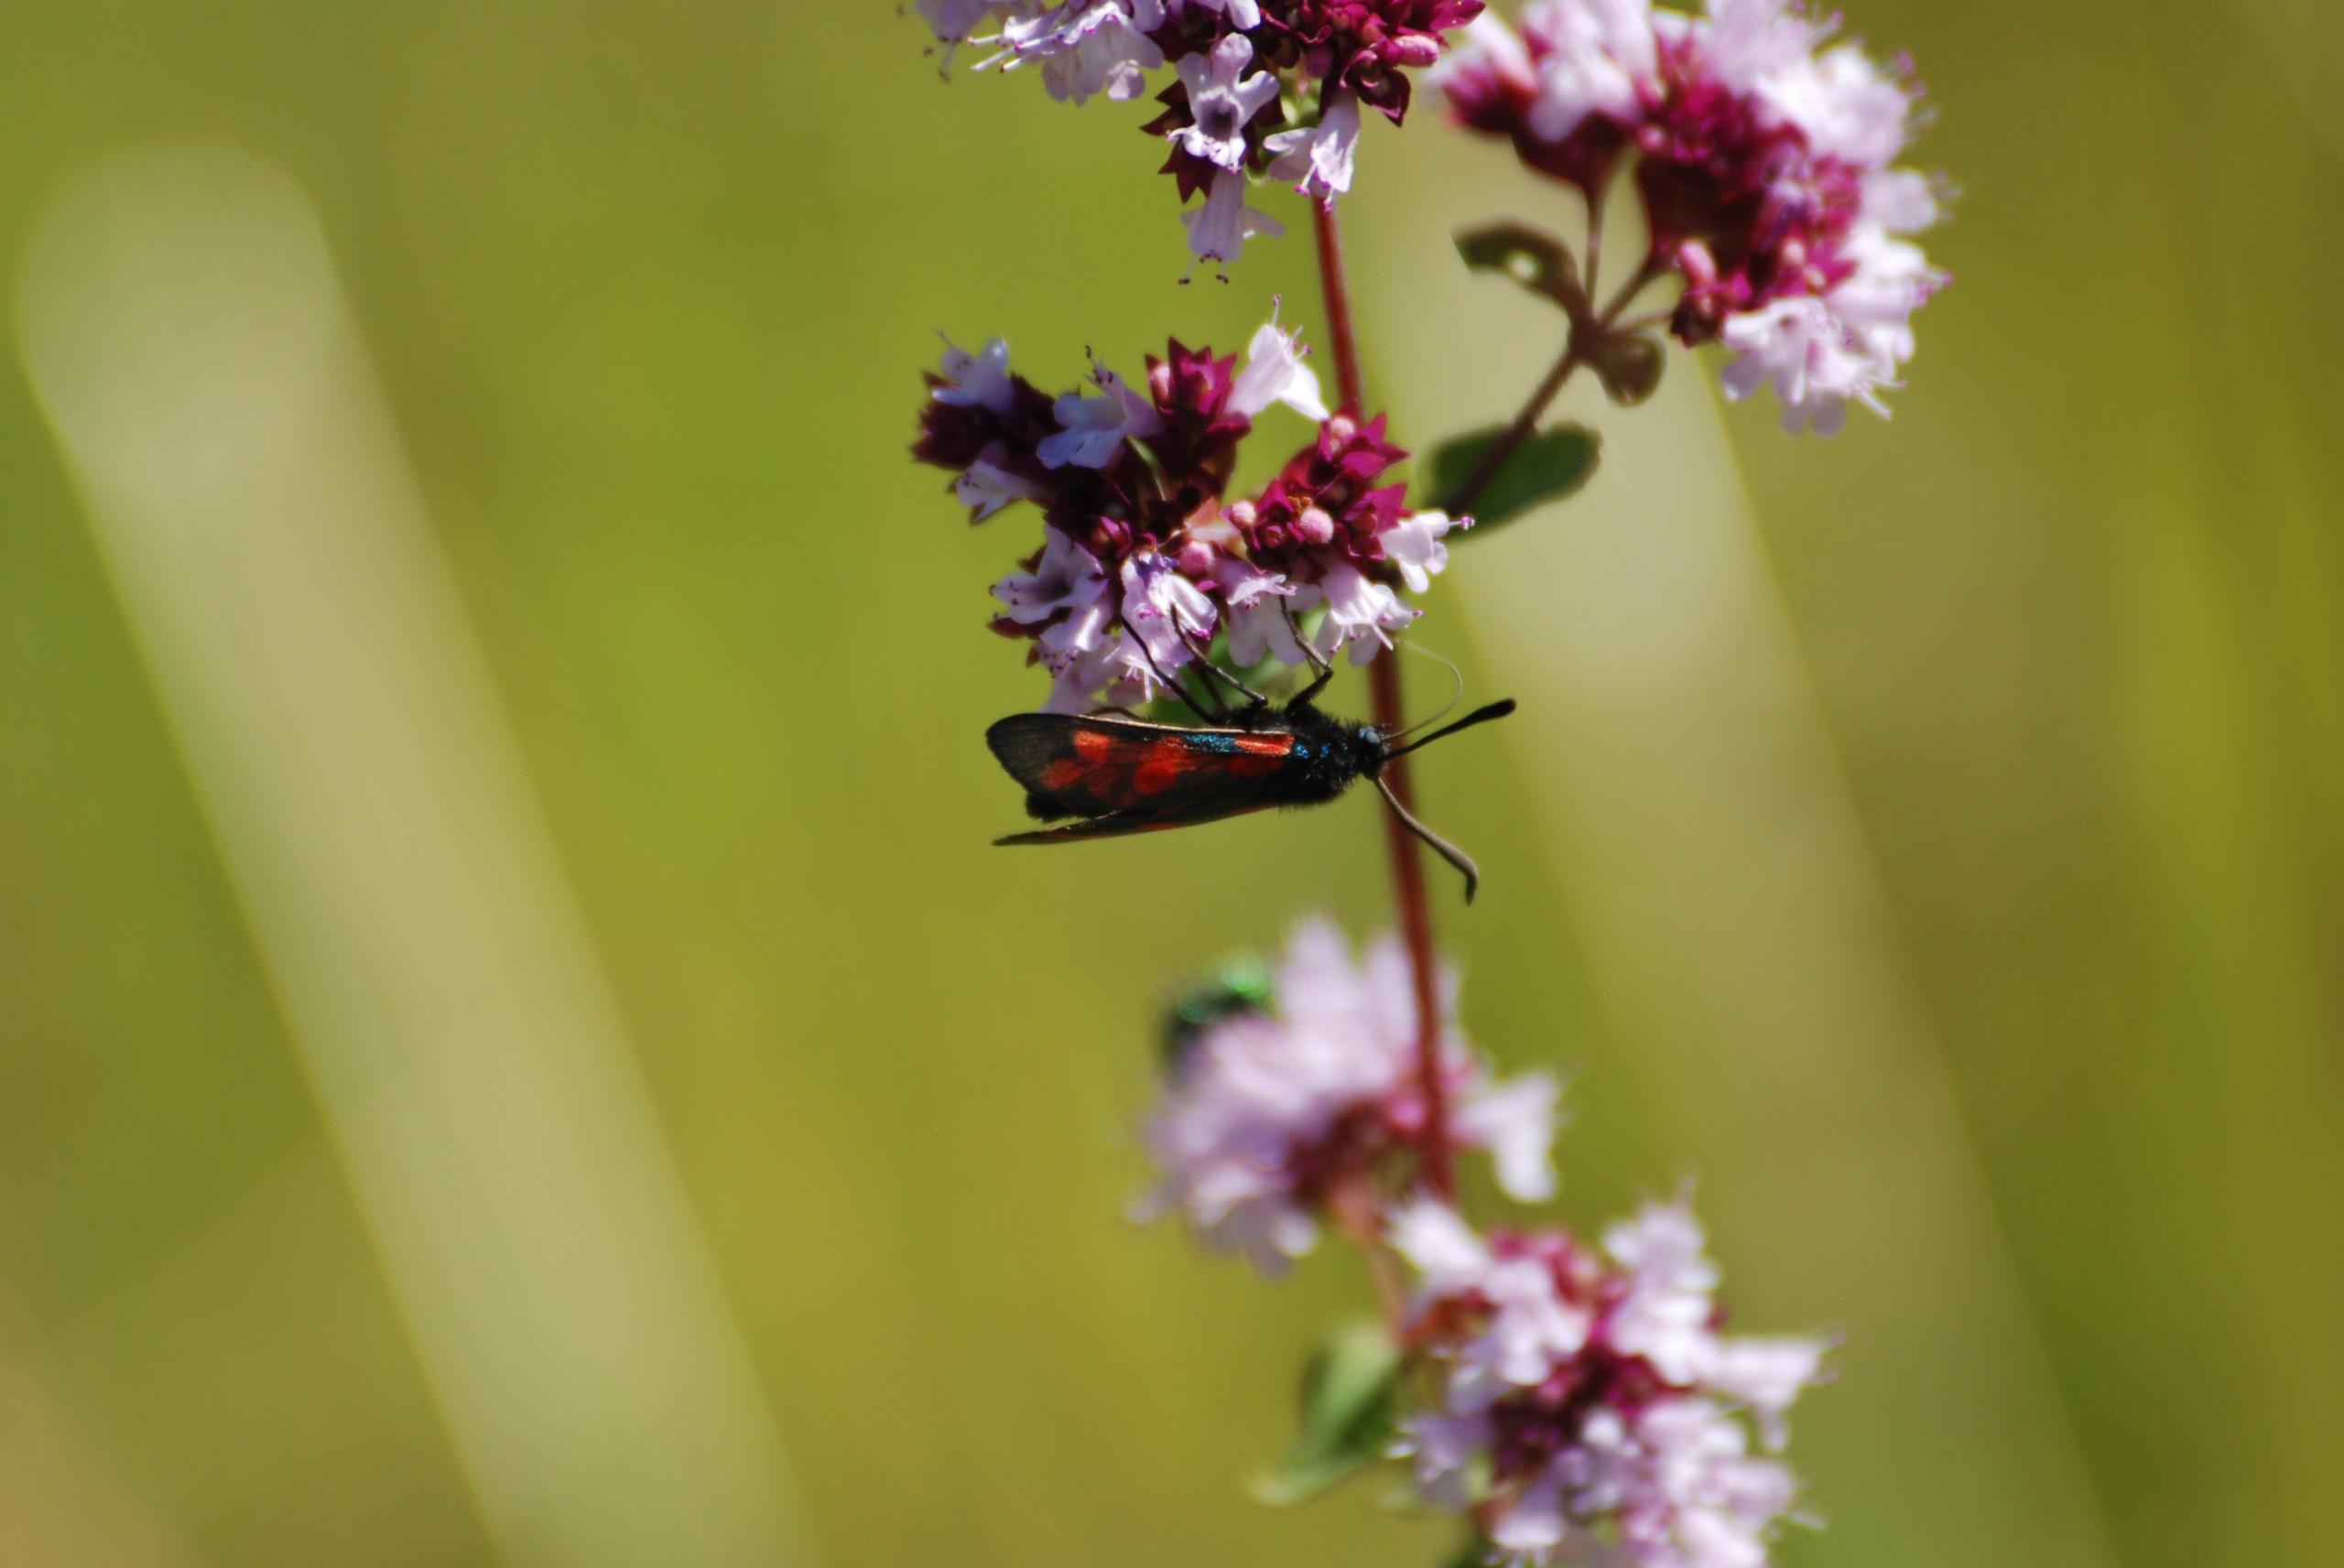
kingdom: Animalia
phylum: Arthropoda
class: Insecta
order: Lepidoptera
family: Zygaenidae
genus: Zygaena
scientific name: Zygaena filipendulae
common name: Seksplettet køllesværmer
